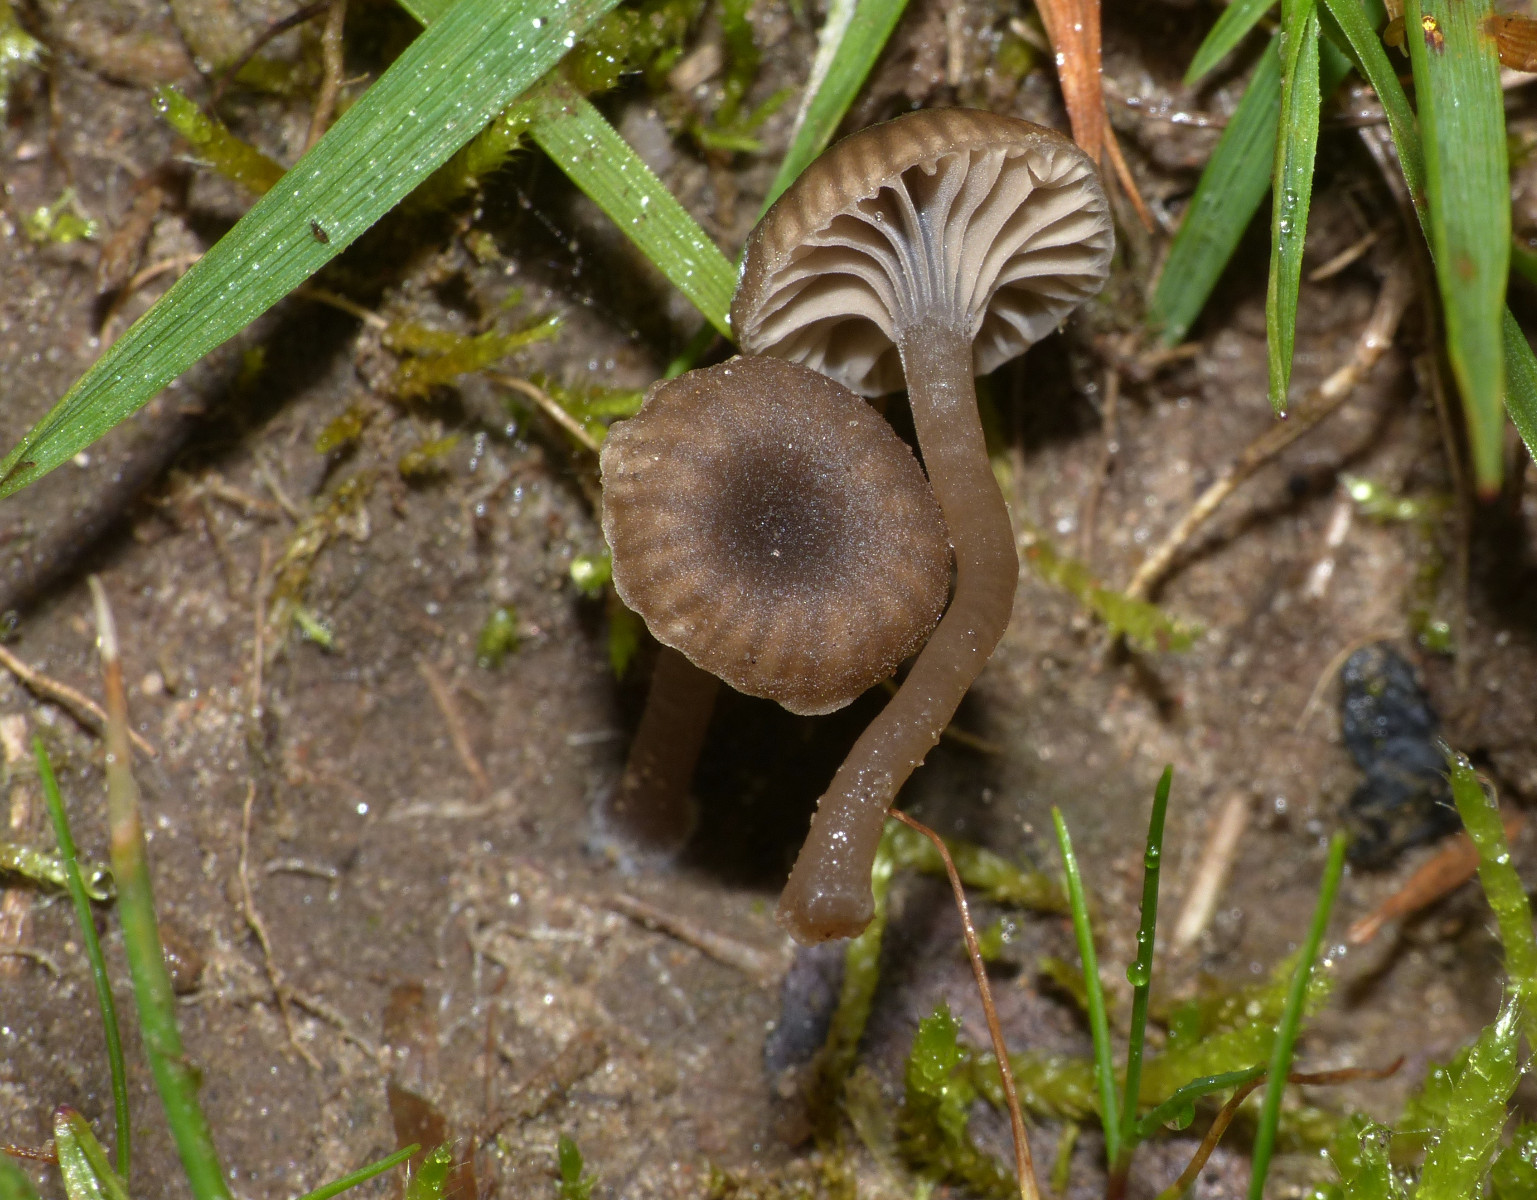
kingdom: Fungi
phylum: Basidiomycota
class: Agaricomycetes
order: Agaricales
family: Hygrophoraceae
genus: Arrhenia
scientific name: Arrhenia rustica
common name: dyster fontænehat
